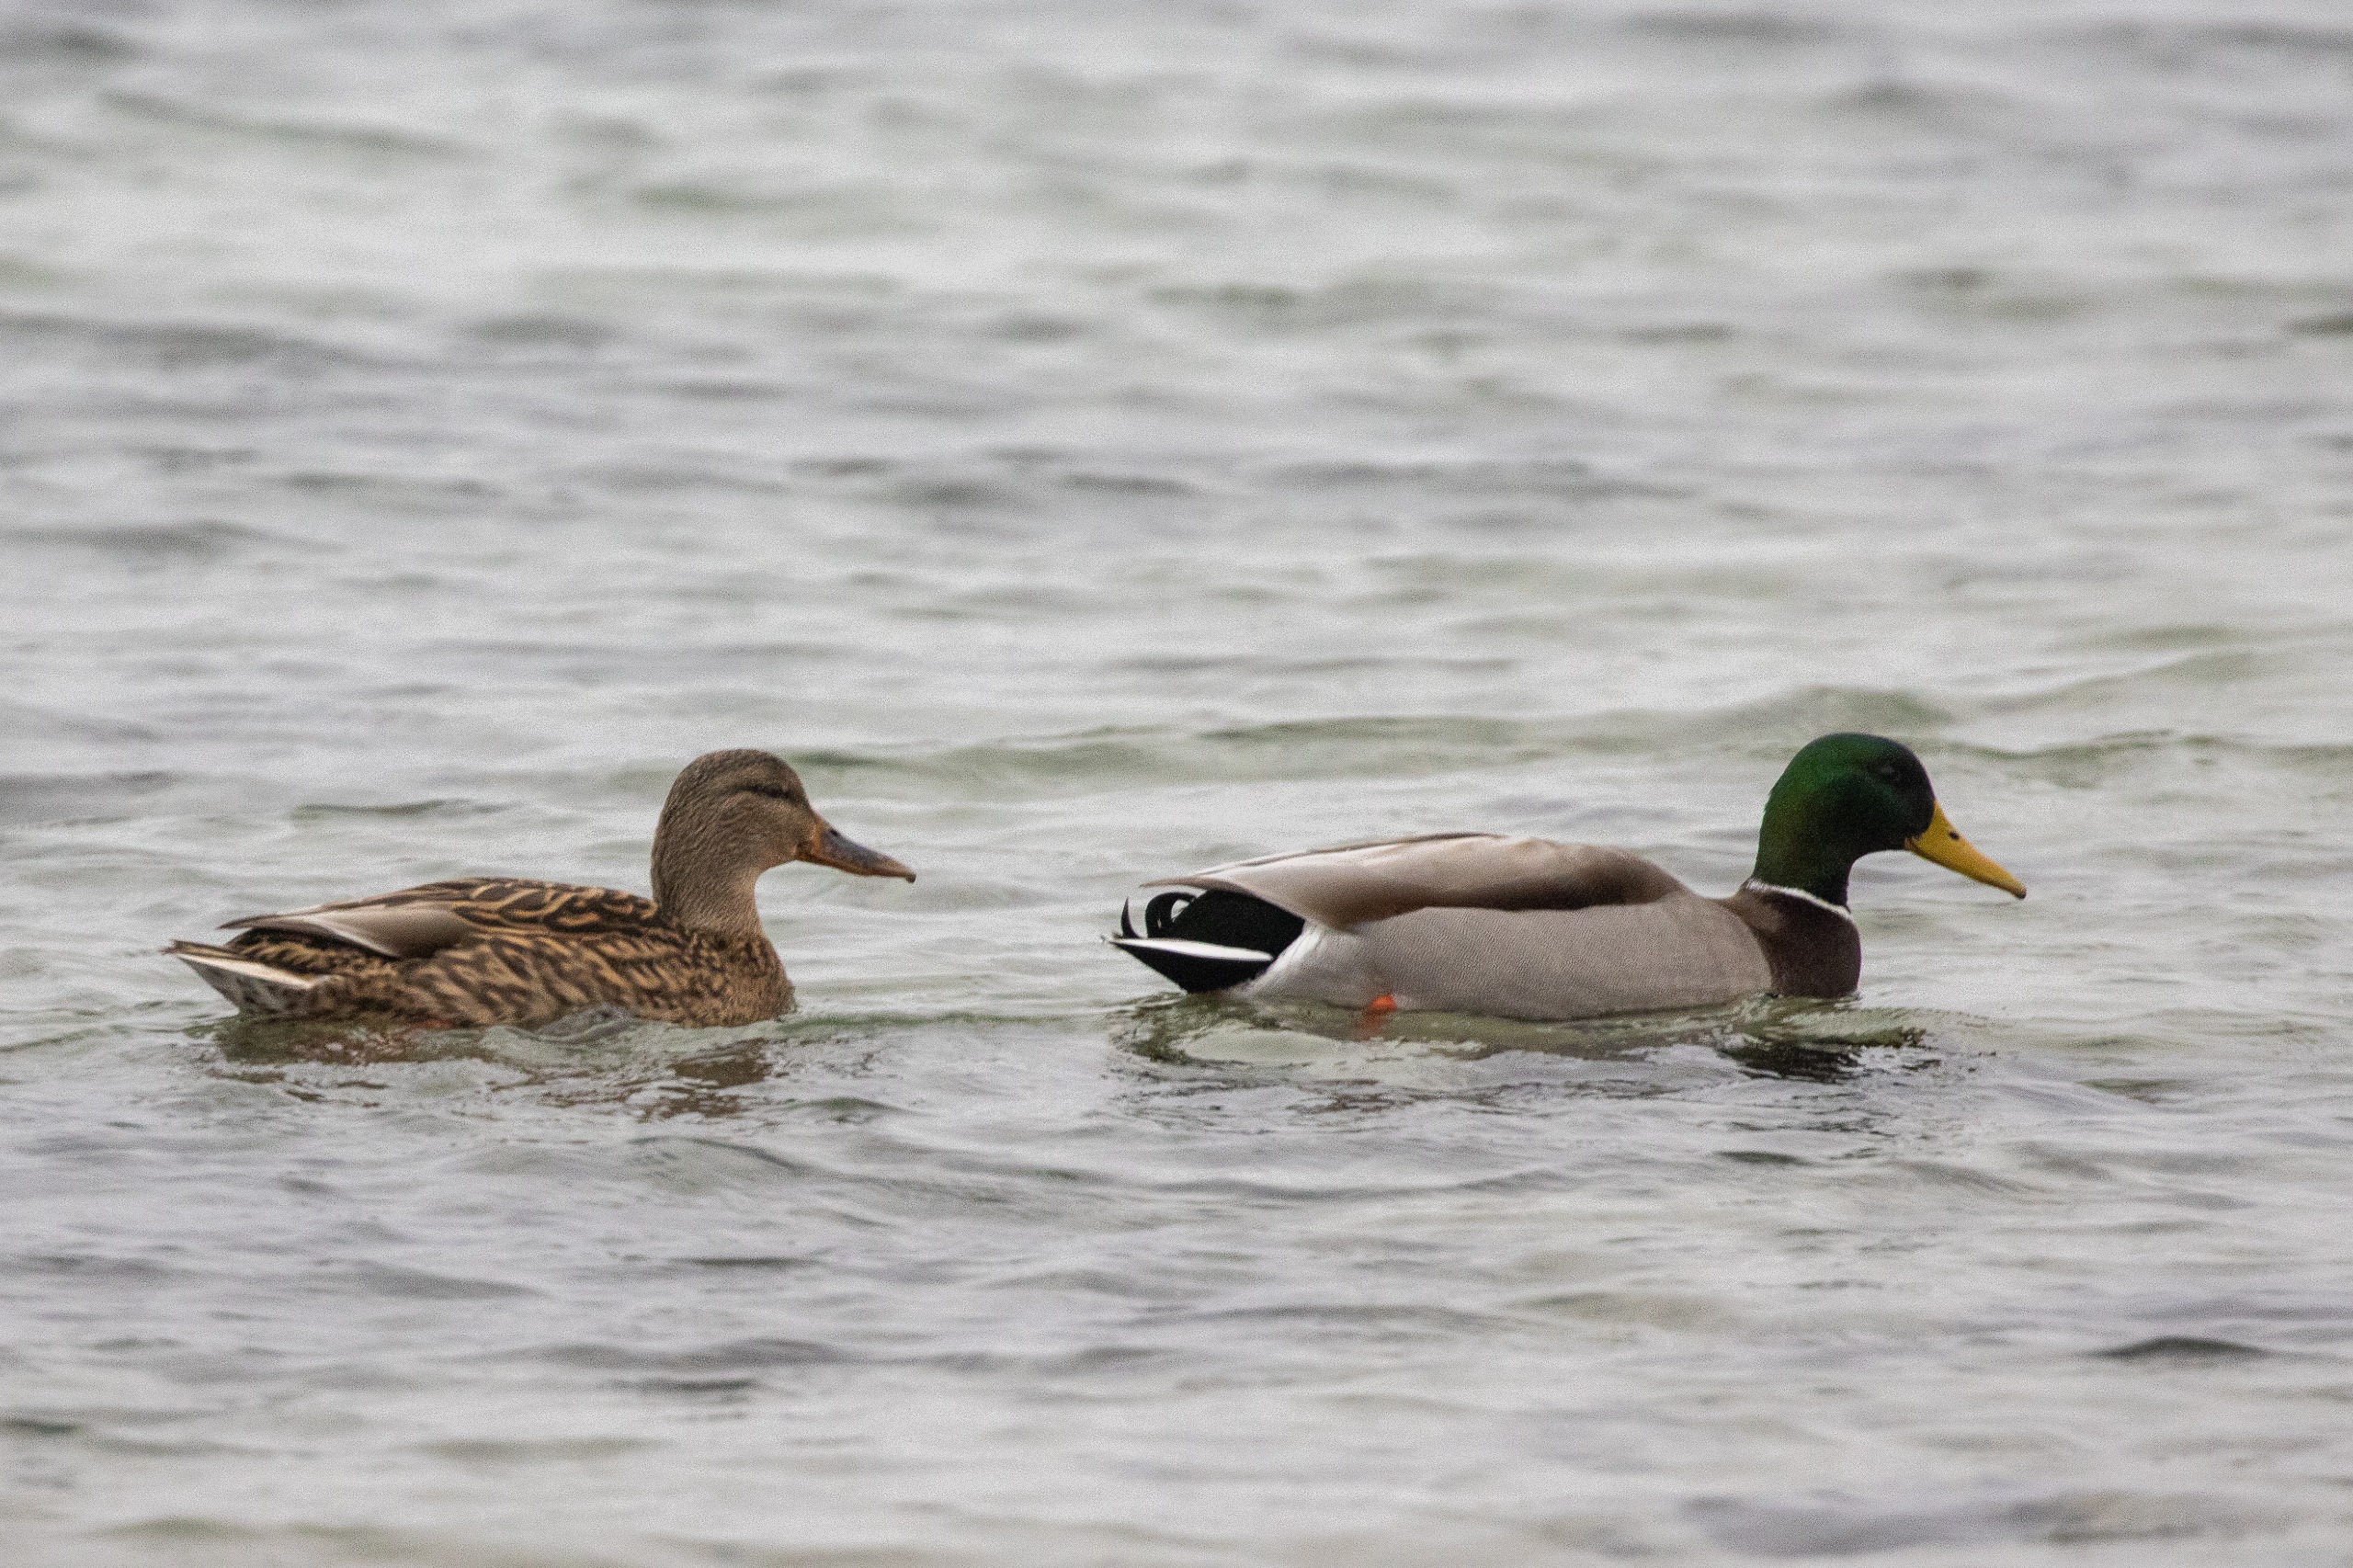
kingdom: Animalia
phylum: Chordata
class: Aves
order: Anseriformes
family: Anatidae
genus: Anas
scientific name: Anas platyrhynchos
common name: Gråand
